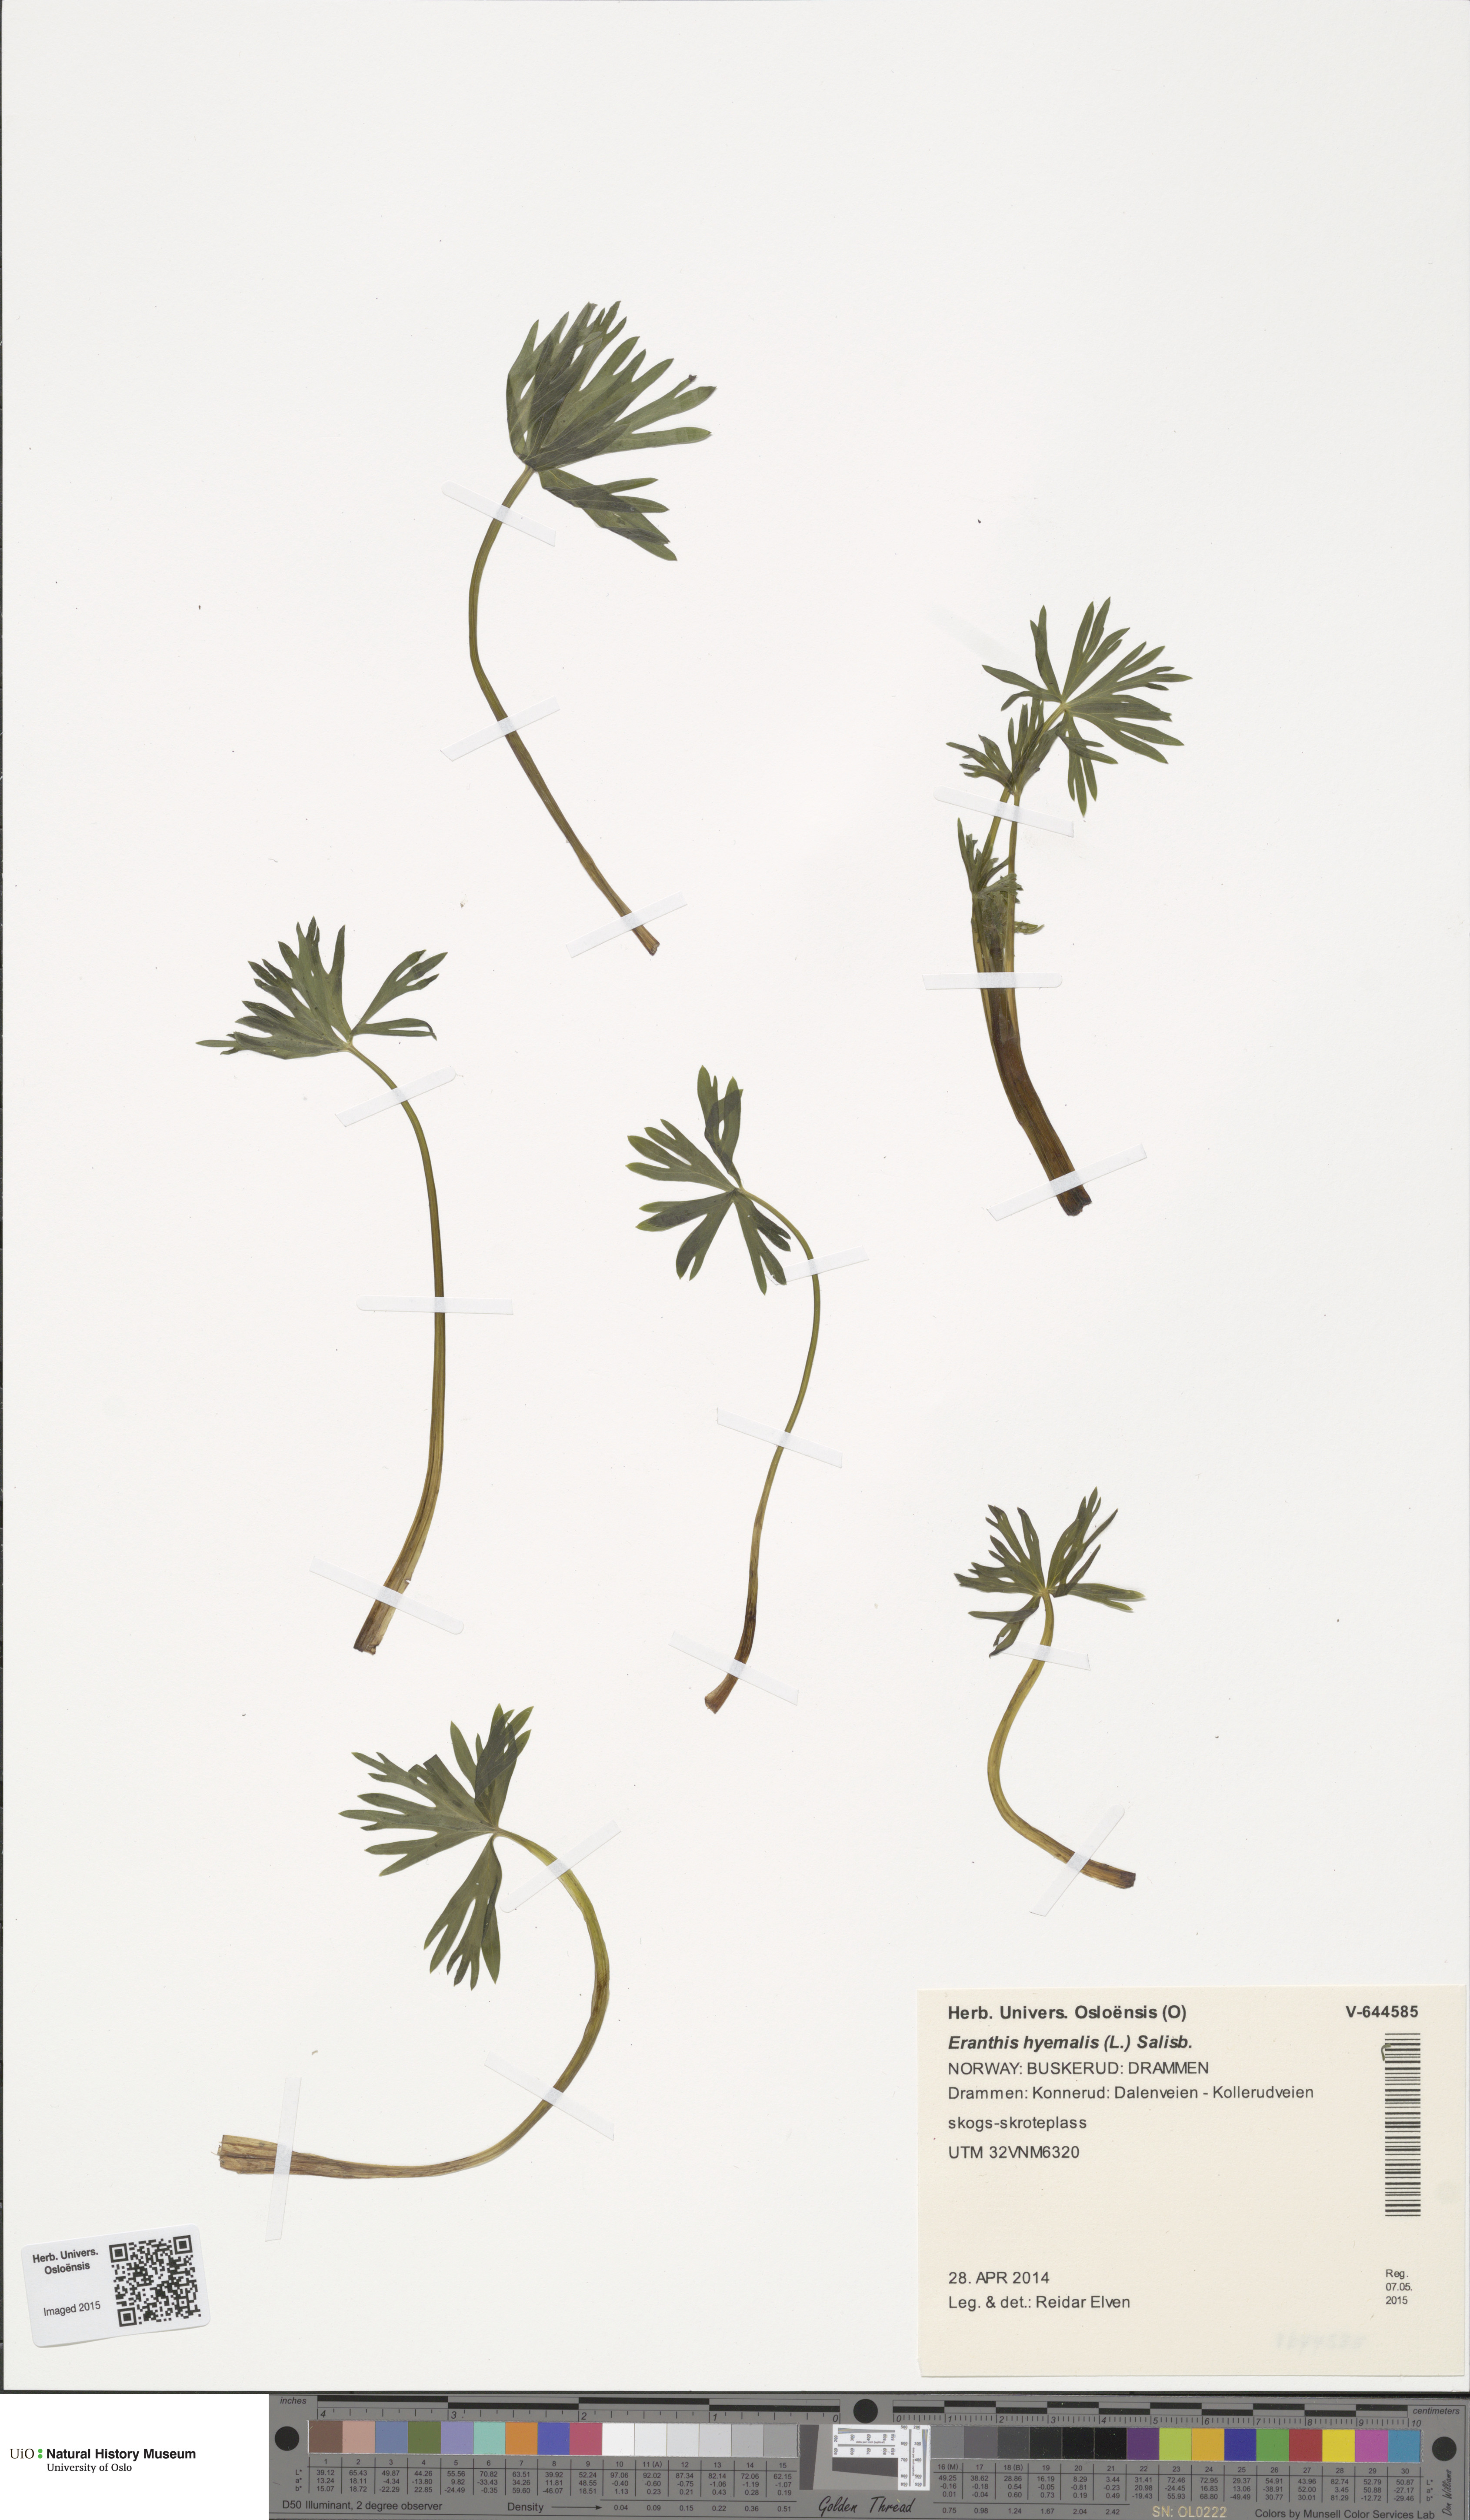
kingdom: Plantae
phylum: Tracheophyta
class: Magnoliopsida
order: Ranunculales
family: Ranunculaceae
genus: Eranthis
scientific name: Eranthis hyemalis
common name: Winter aconite
